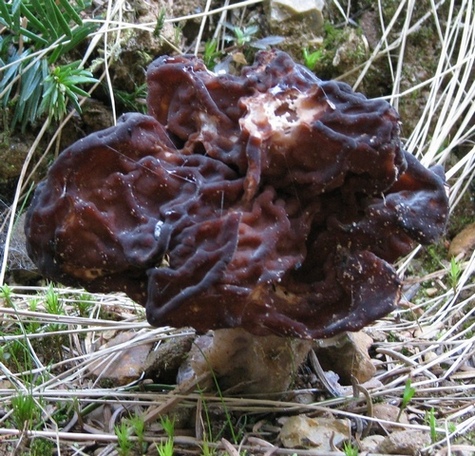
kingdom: Fungi
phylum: Ascomycota
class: Pezizomycetes
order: Pezizales
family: Discinaceae
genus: Gyromitra
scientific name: Gyromitra esculenta
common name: ægte stenmorkel
